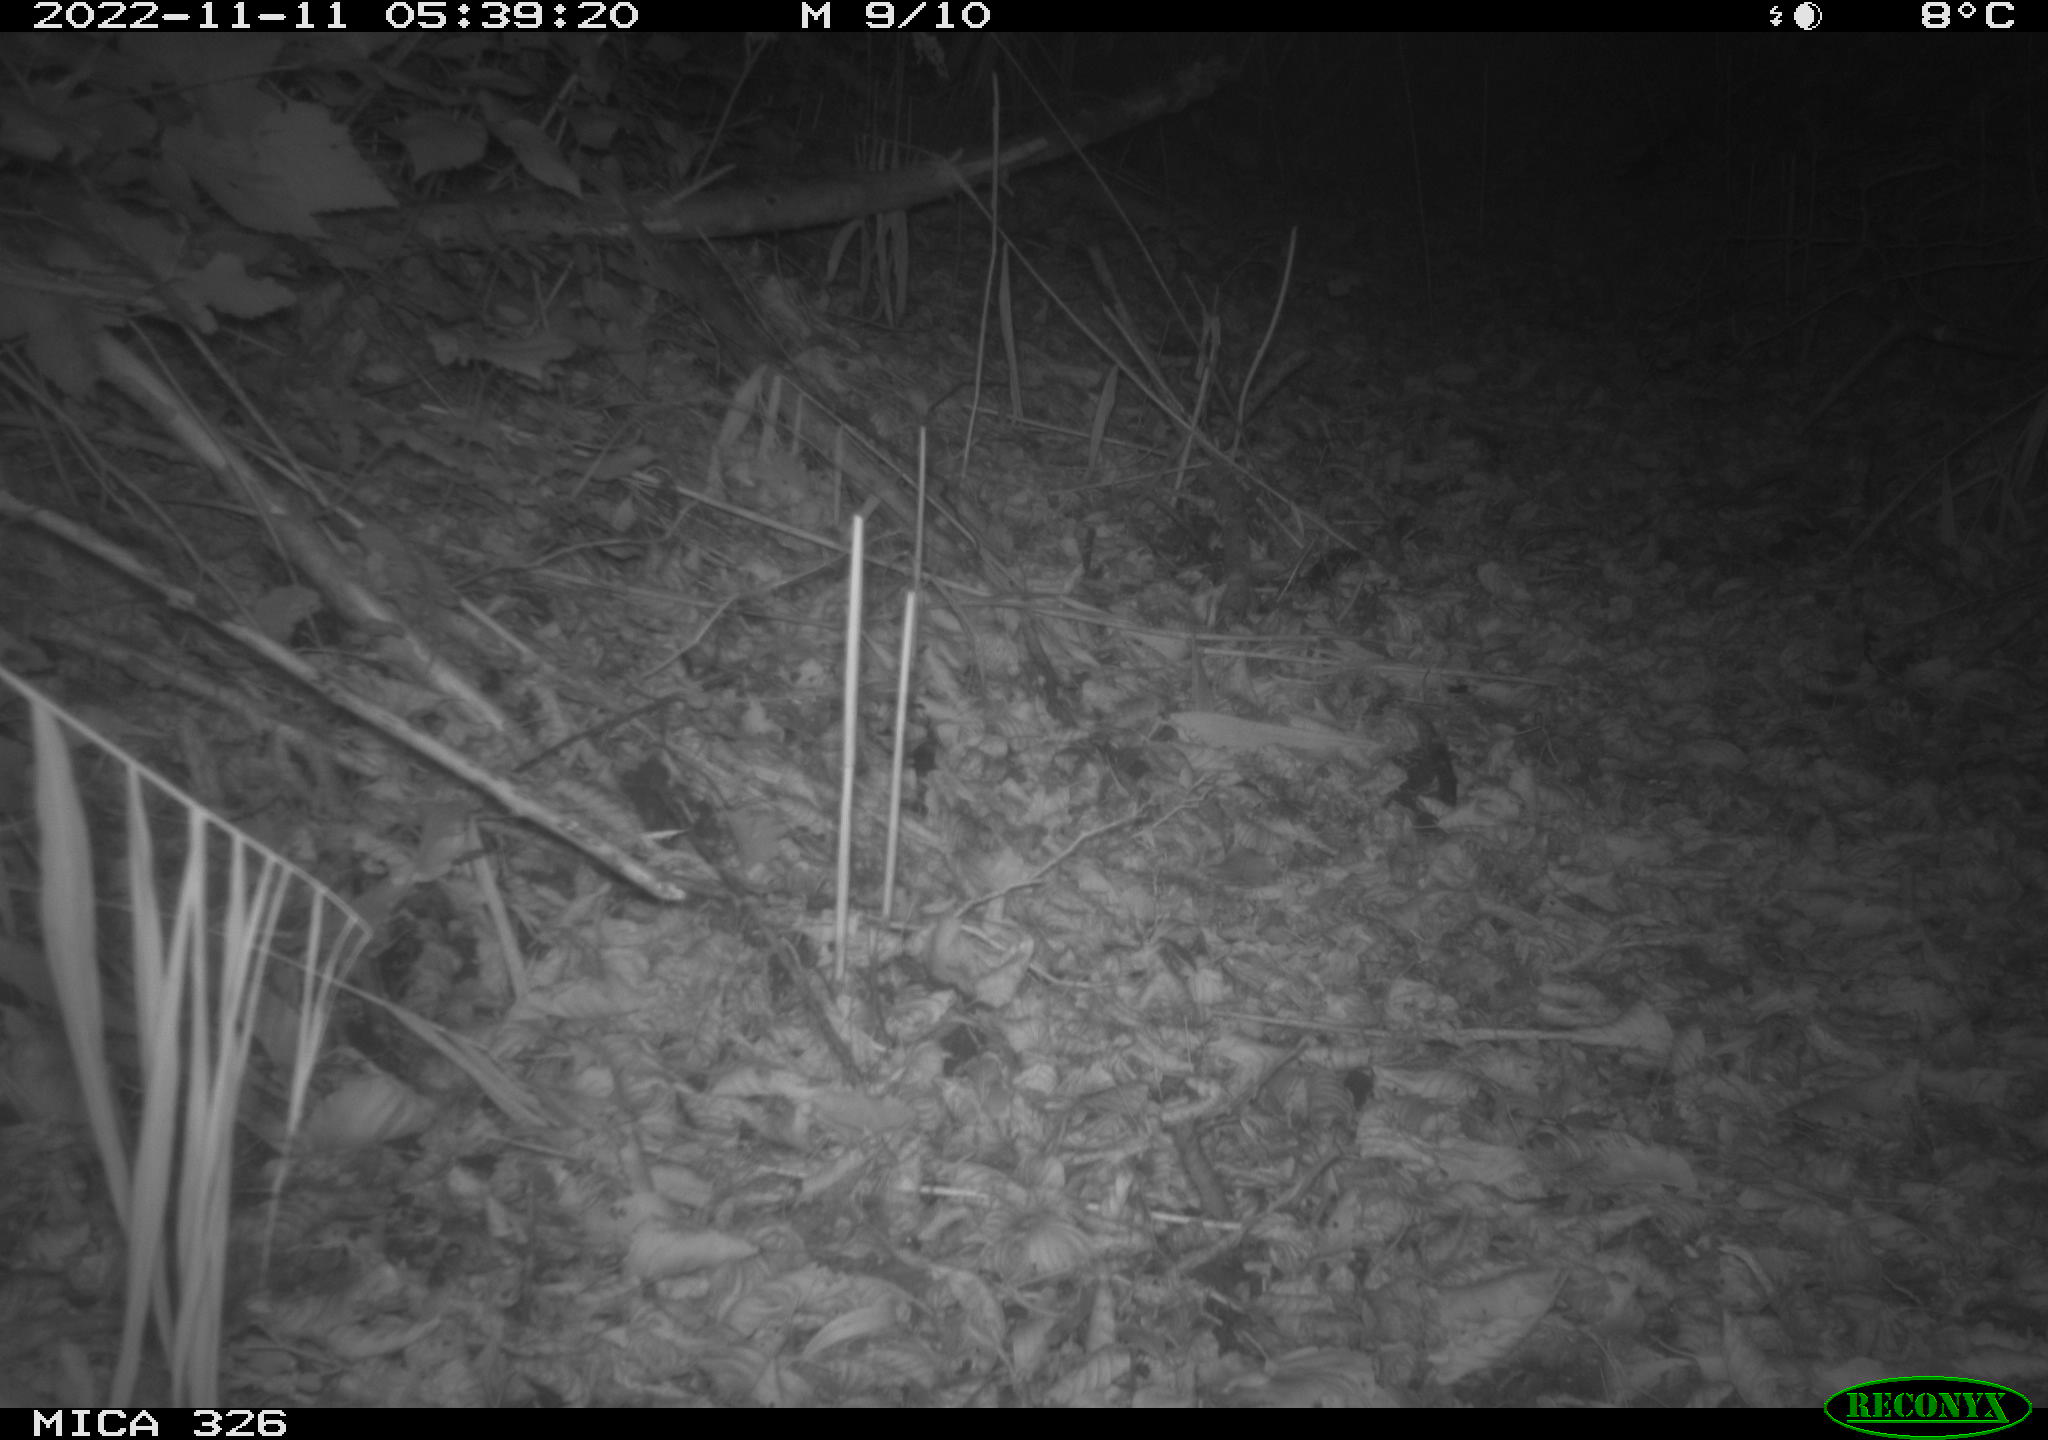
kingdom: Animalia
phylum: Chordata
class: Mammalia
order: Carnivora
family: Canidae
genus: Vulpes
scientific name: Vulpes vulpes
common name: Red fox
